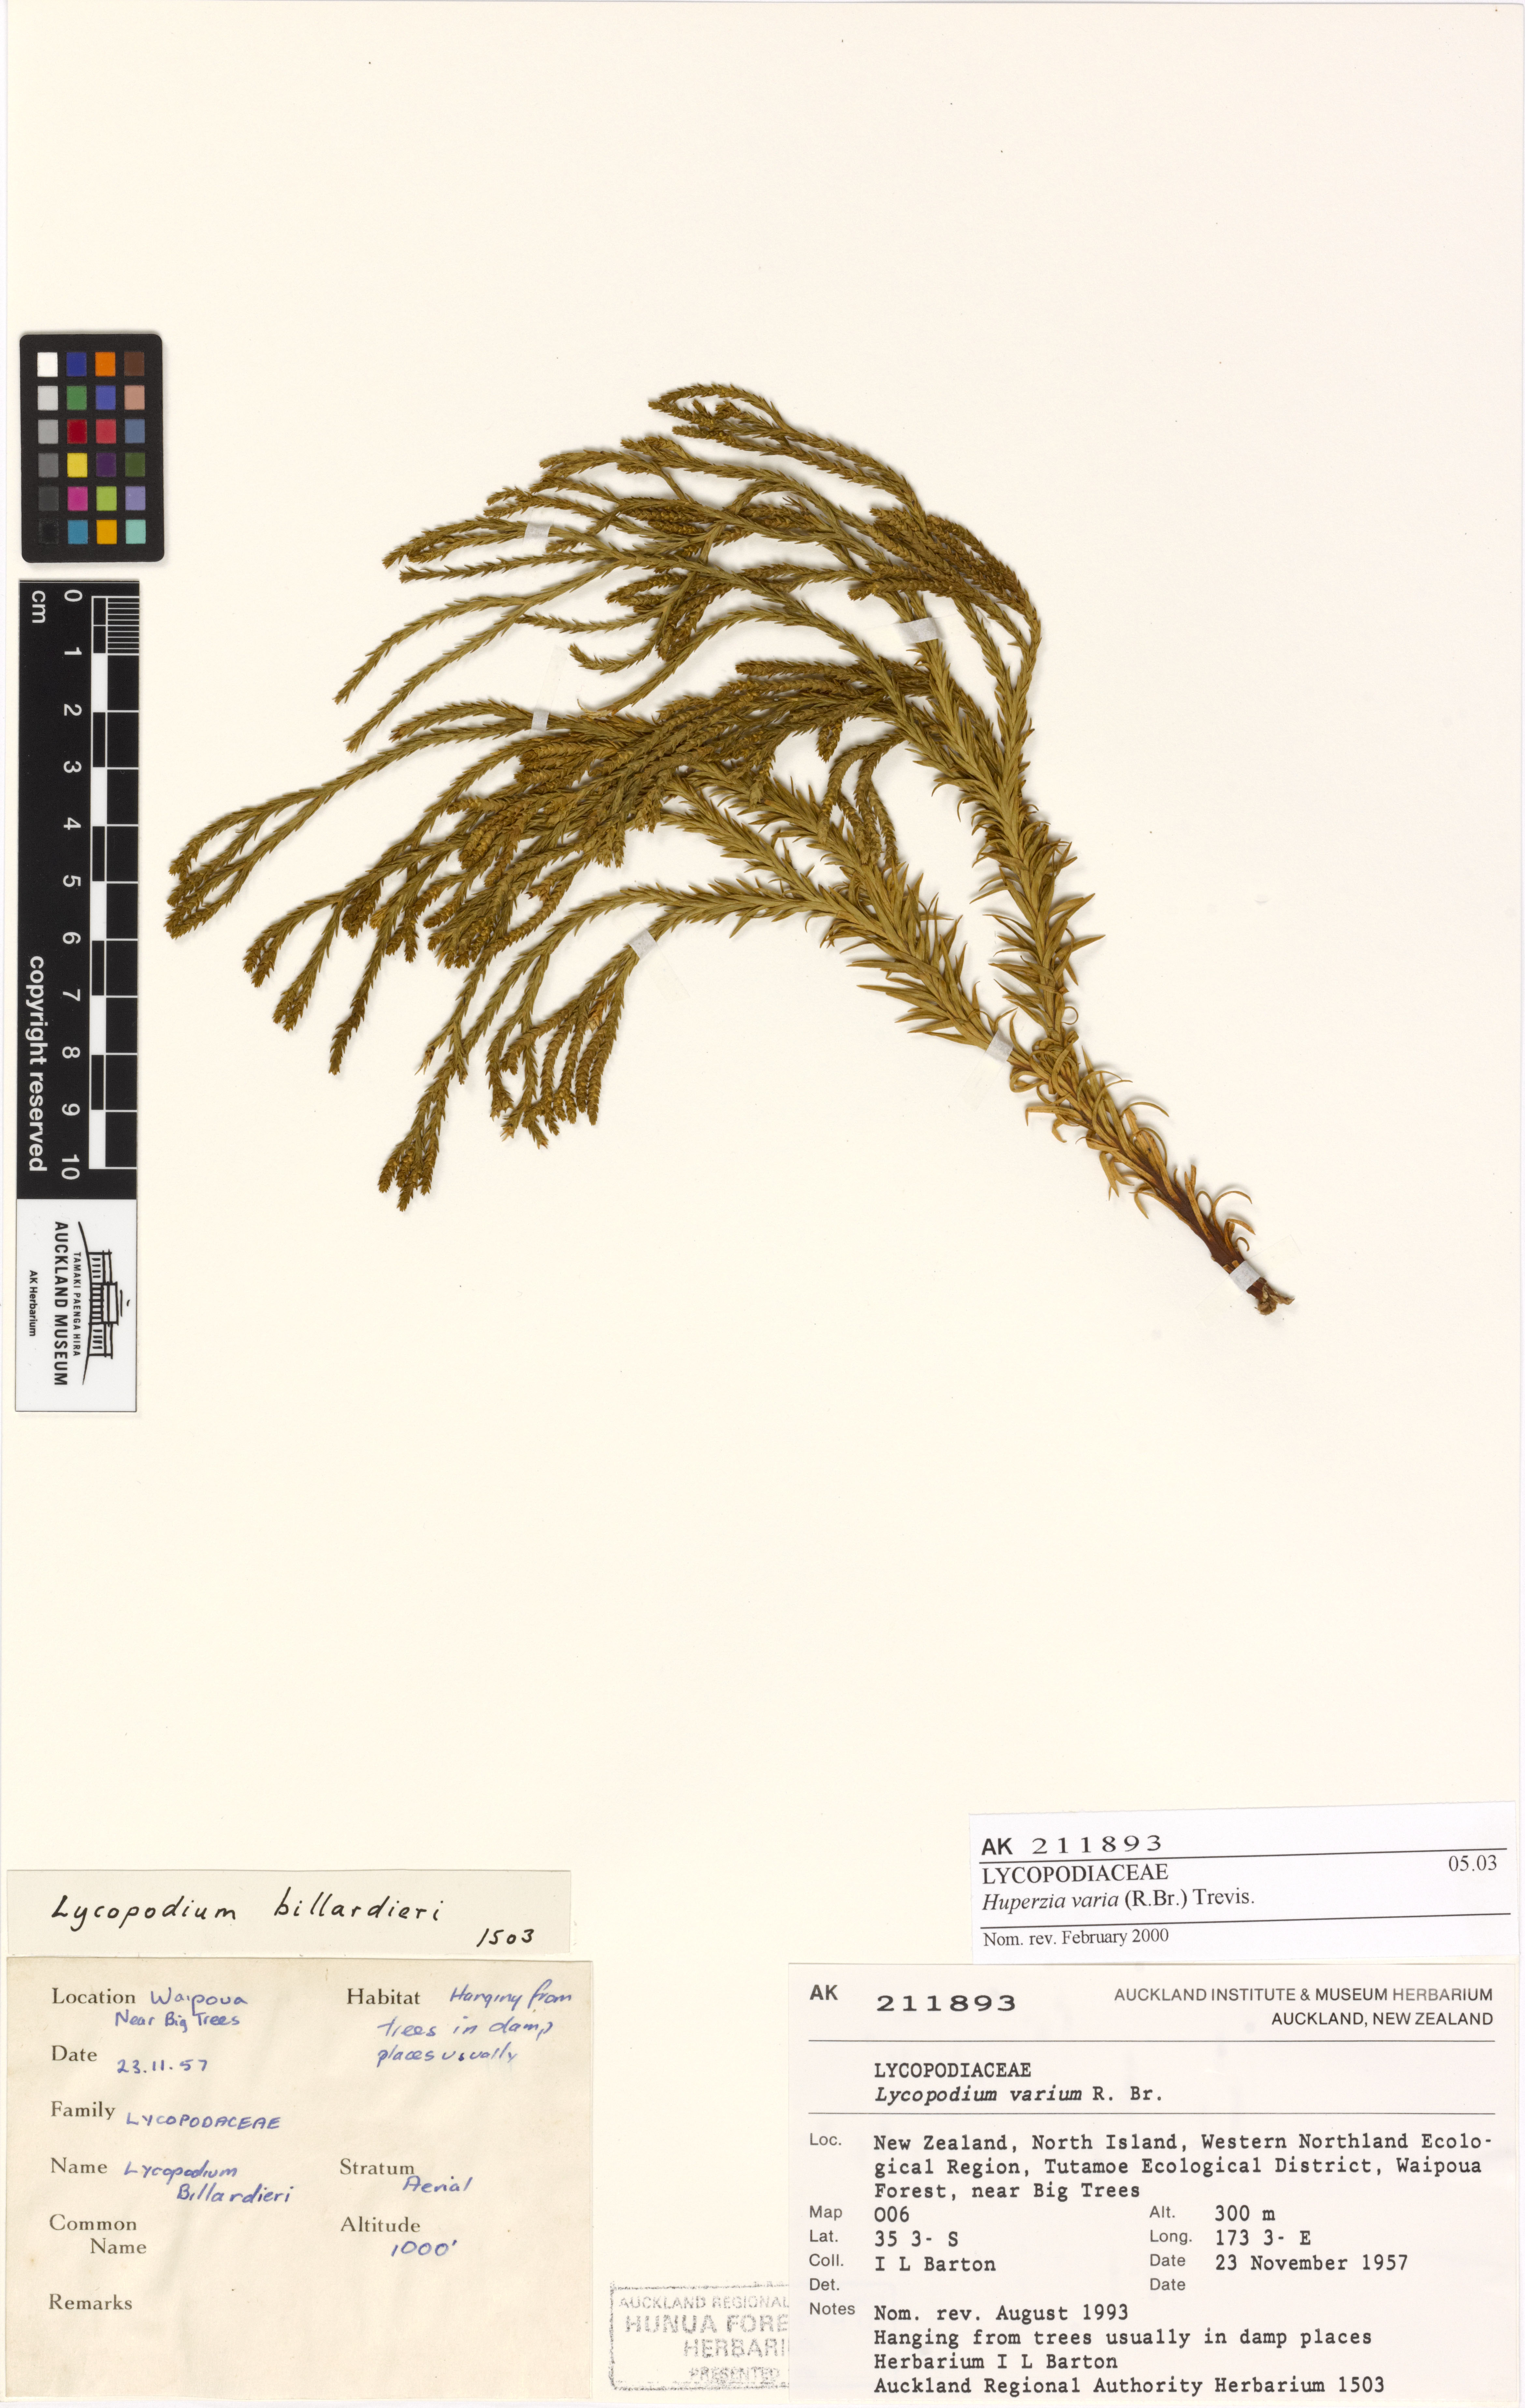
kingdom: Plantae
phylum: Tracheophyta
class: Lycopodiopsida
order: Lycopodiales
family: Lycopodiaceae
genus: Phlegmariurus
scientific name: Phlegmariurus billardierei
